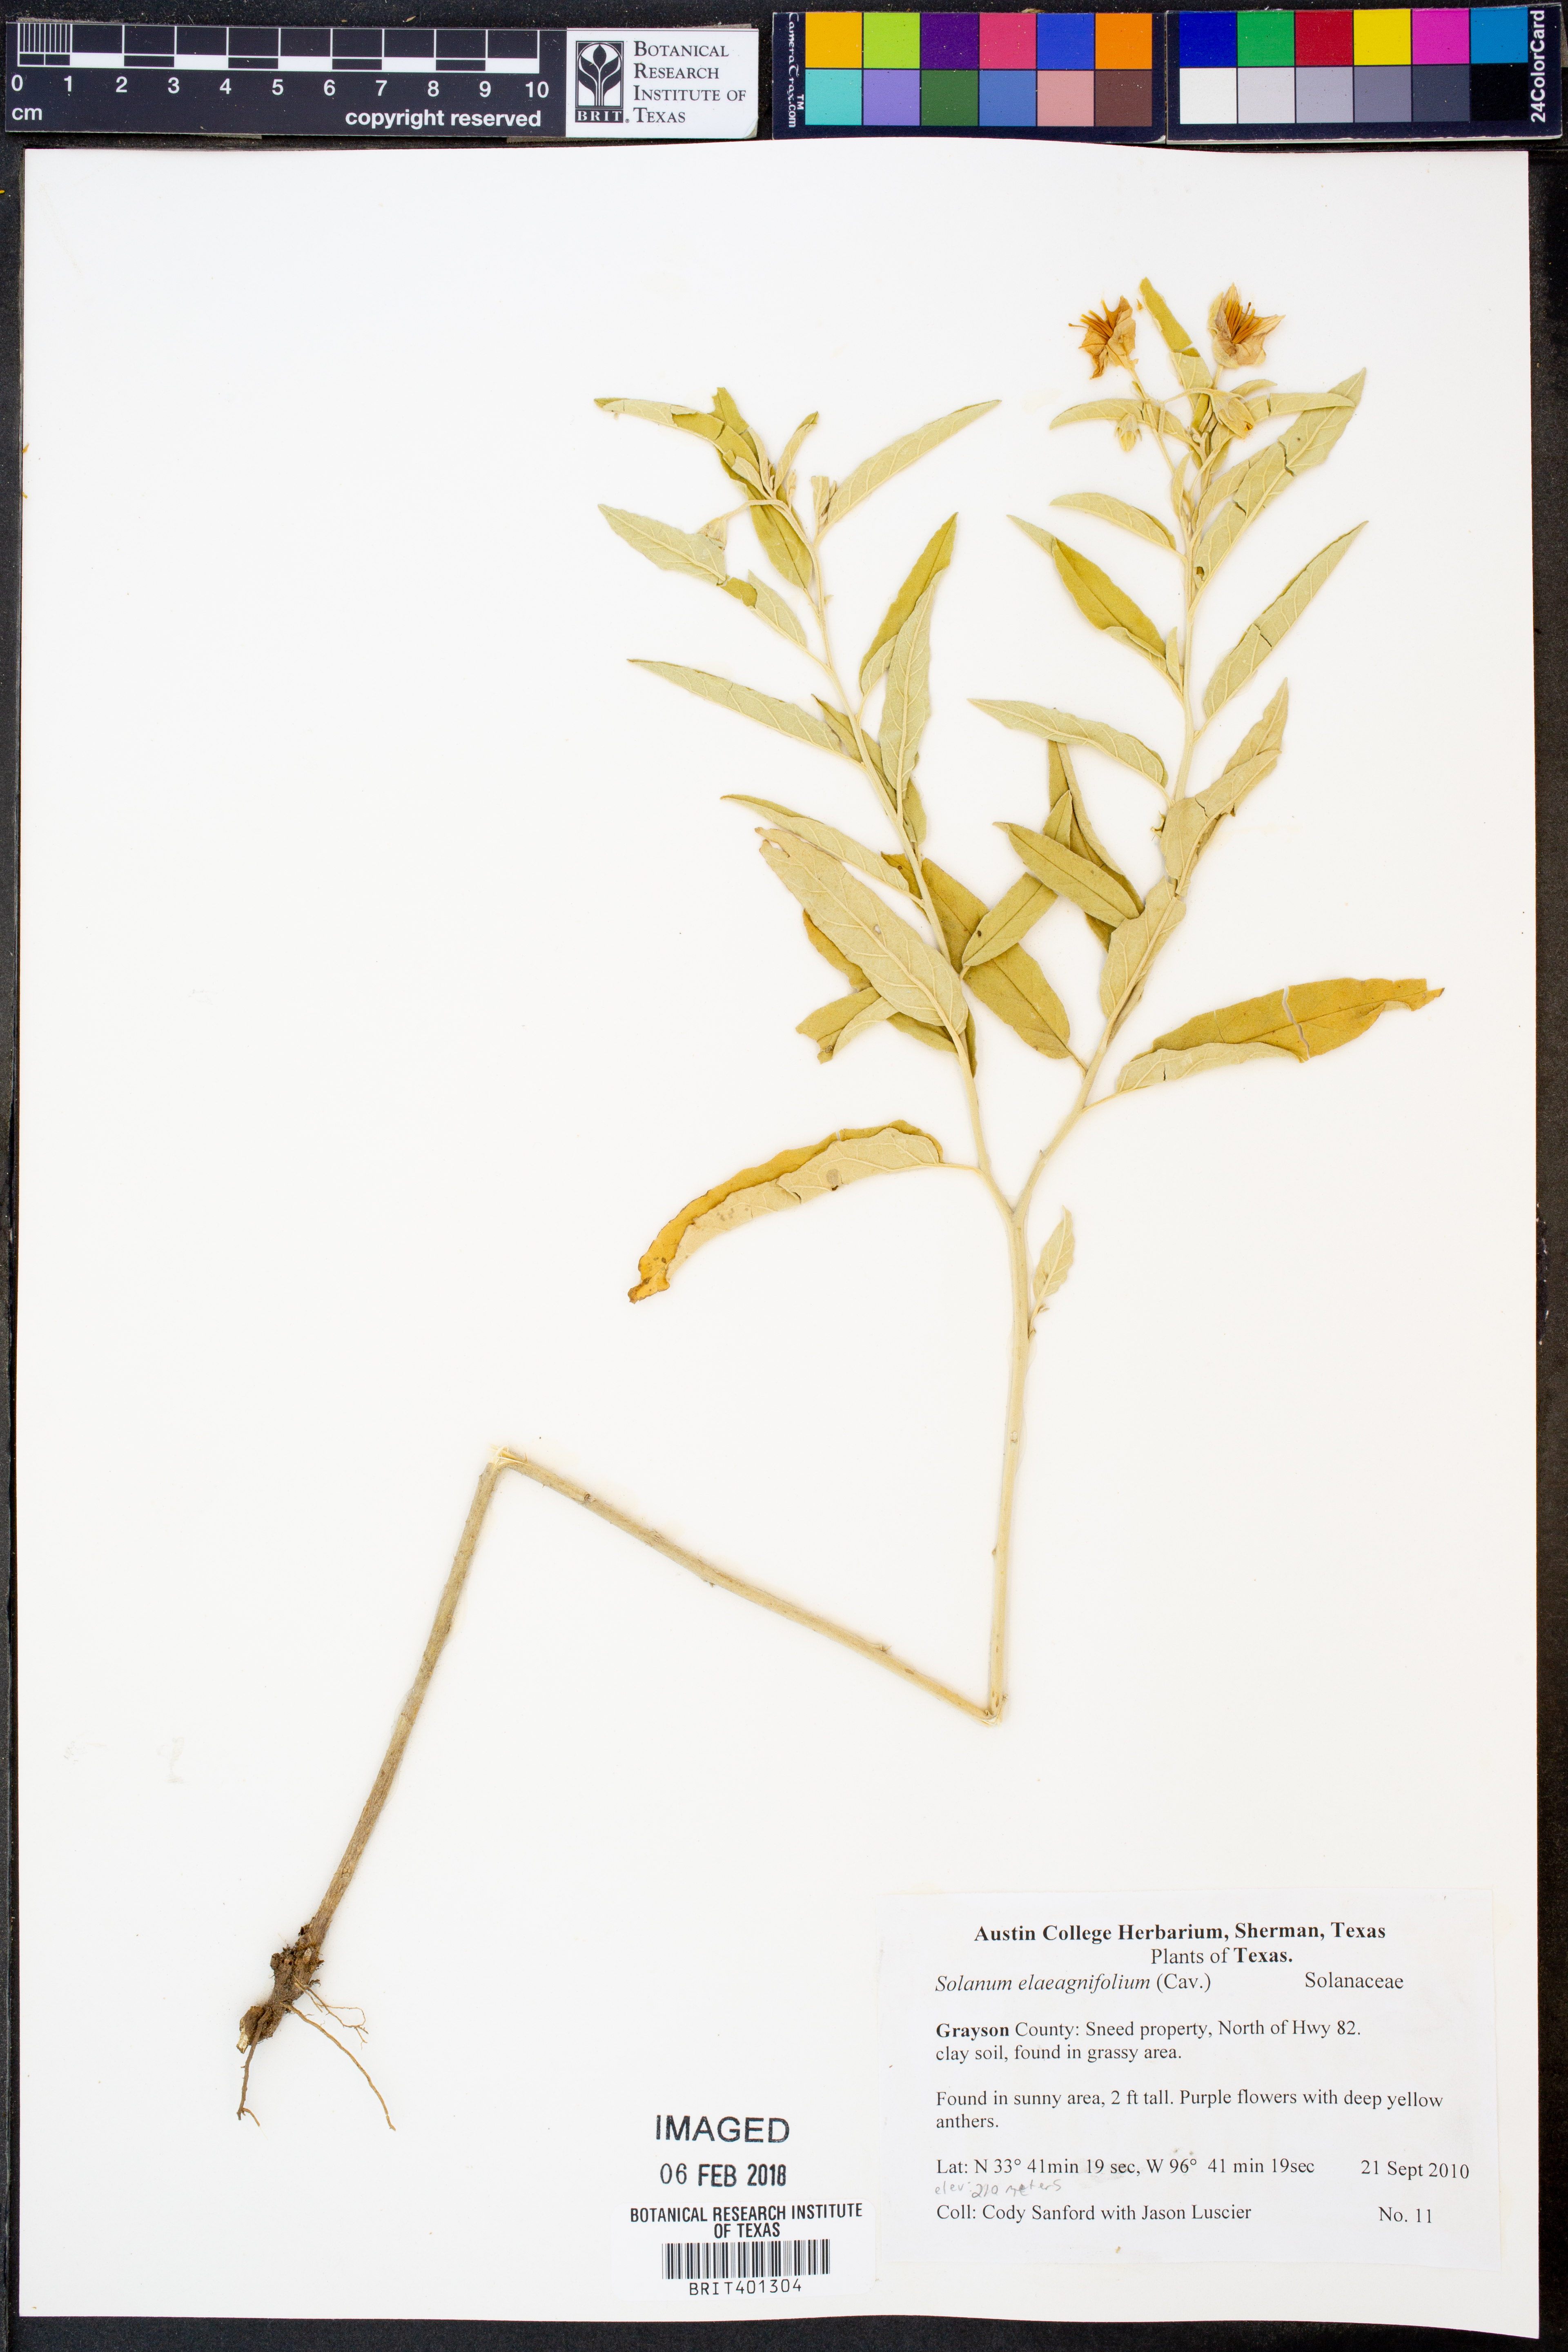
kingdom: Plantae
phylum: Tracheophyta
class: Magnoliopsida
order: Solanales
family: Solanaceae
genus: Solanum
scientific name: Solanum elaeagnifolium
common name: Silverleaf nightshade
